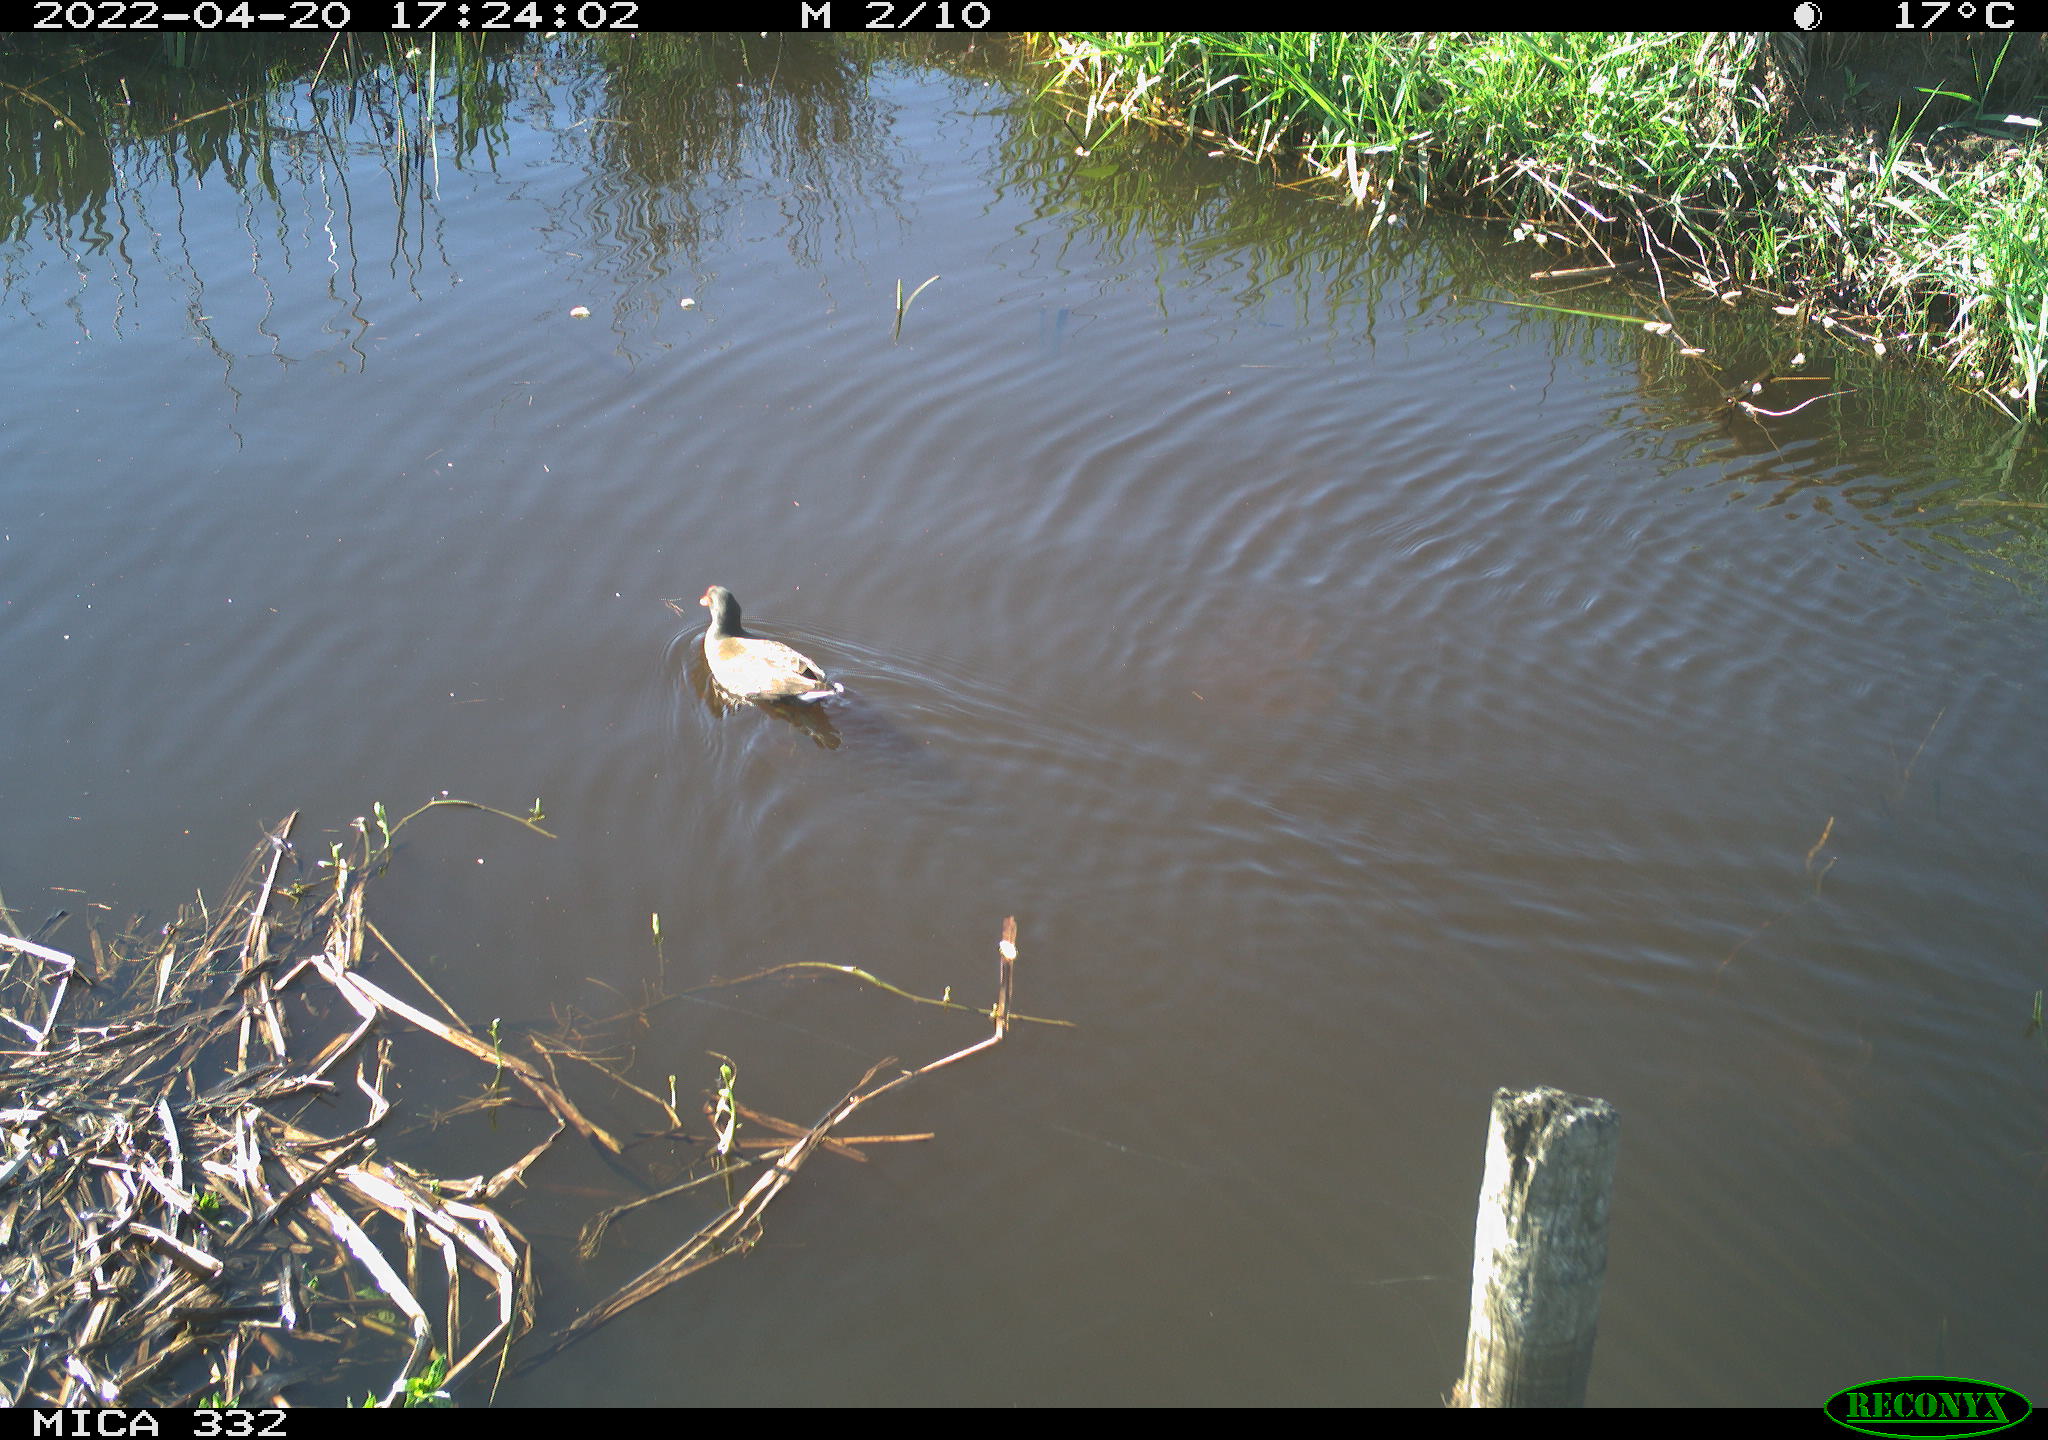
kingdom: Animalia
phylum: Chordata
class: Aves
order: Gruiformes
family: Rallidae
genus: Gallinula
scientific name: Gallinula chloropus
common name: Common moorhen
